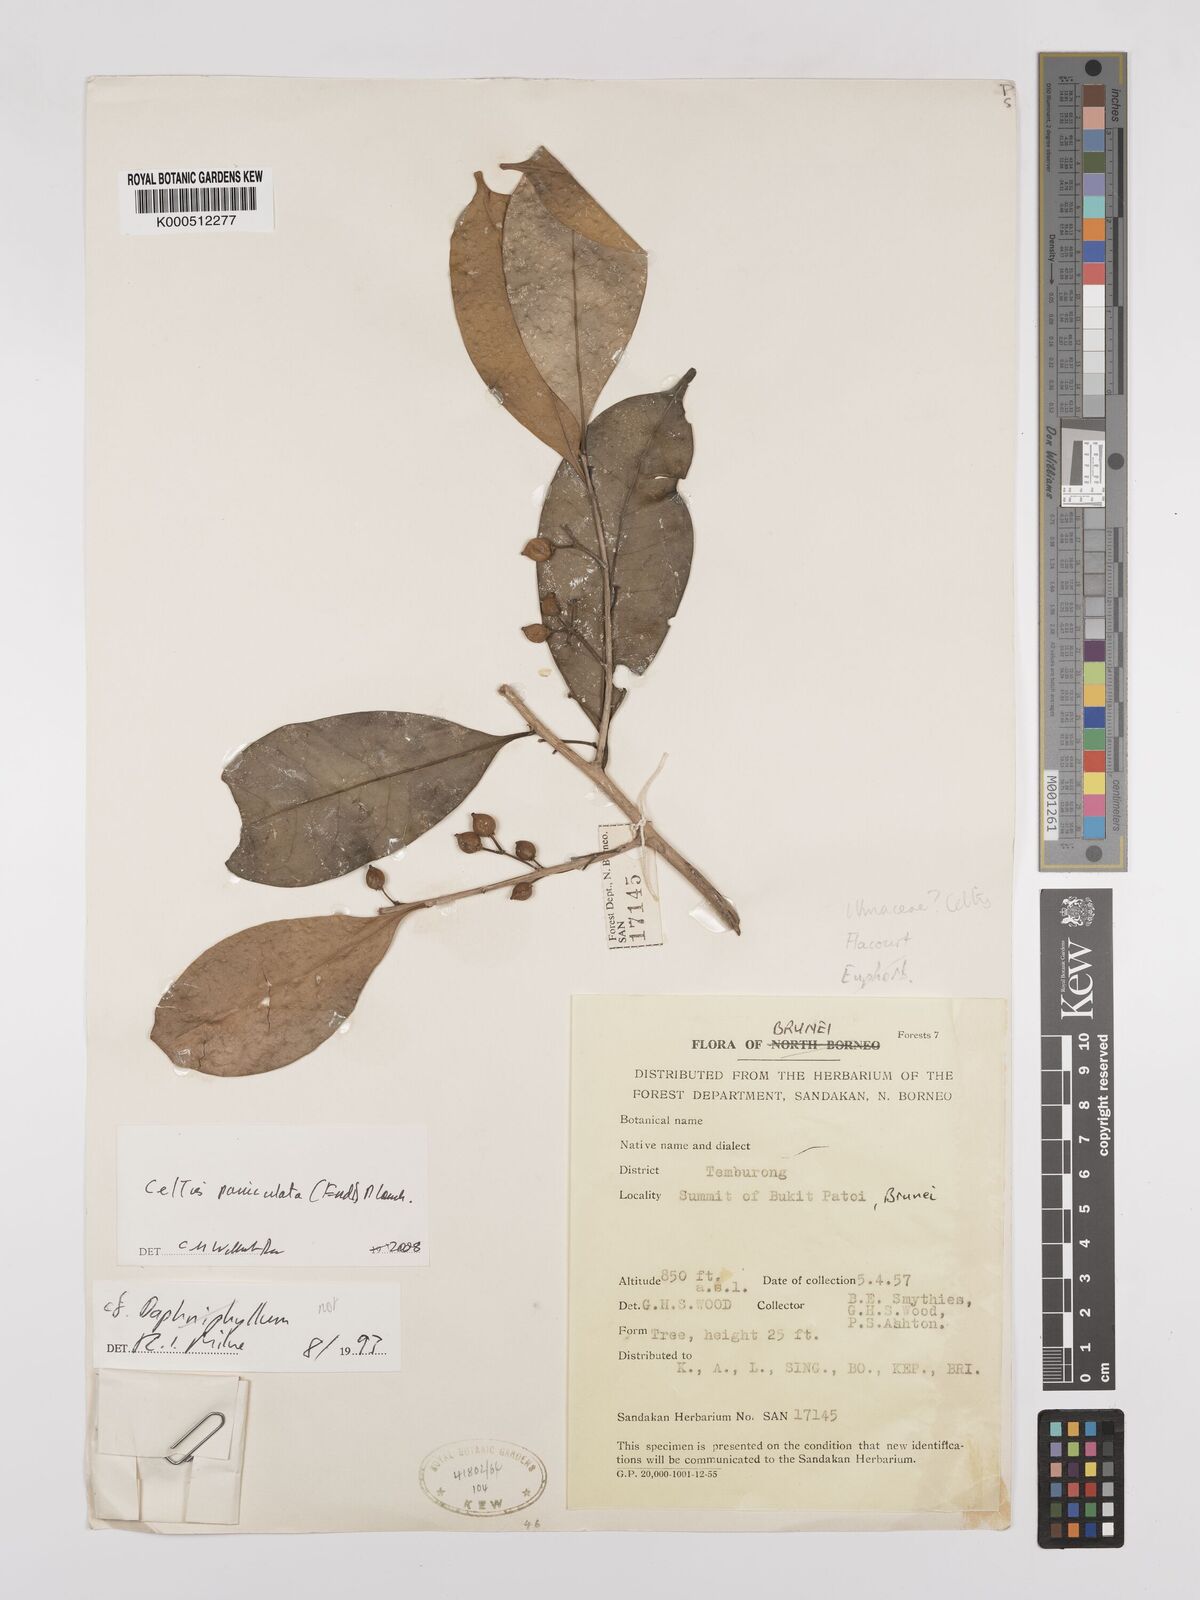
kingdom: Plantae
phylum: Tracheophyta
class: Magnoliopsida
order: Rosales
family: Cannabaceae
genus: Celtis
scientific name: Celtis paniculata
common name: Silky celtis
